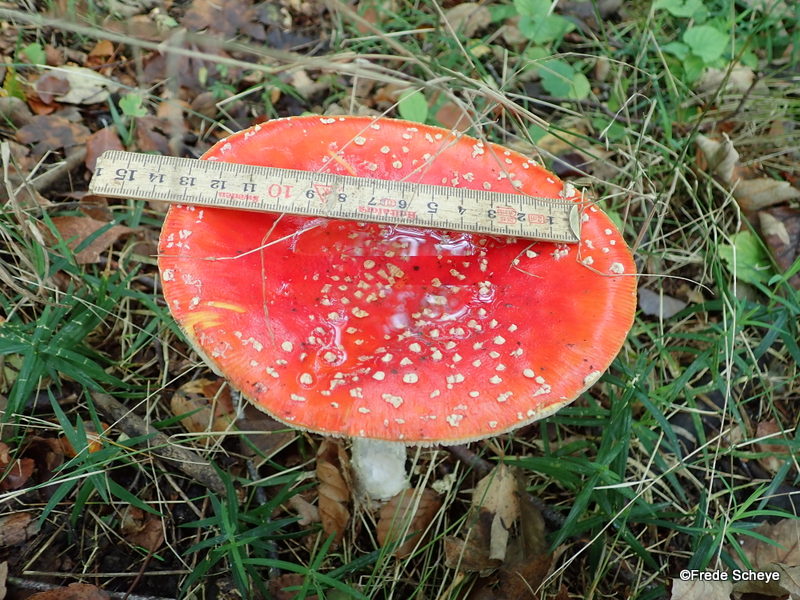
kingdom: Fungi
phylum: Basidiomycota
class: Agaricomycetes
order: Agaricales
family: Amanitaceae
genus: Amanita
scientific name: Amanita muscaria
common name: rød fluesvamp
